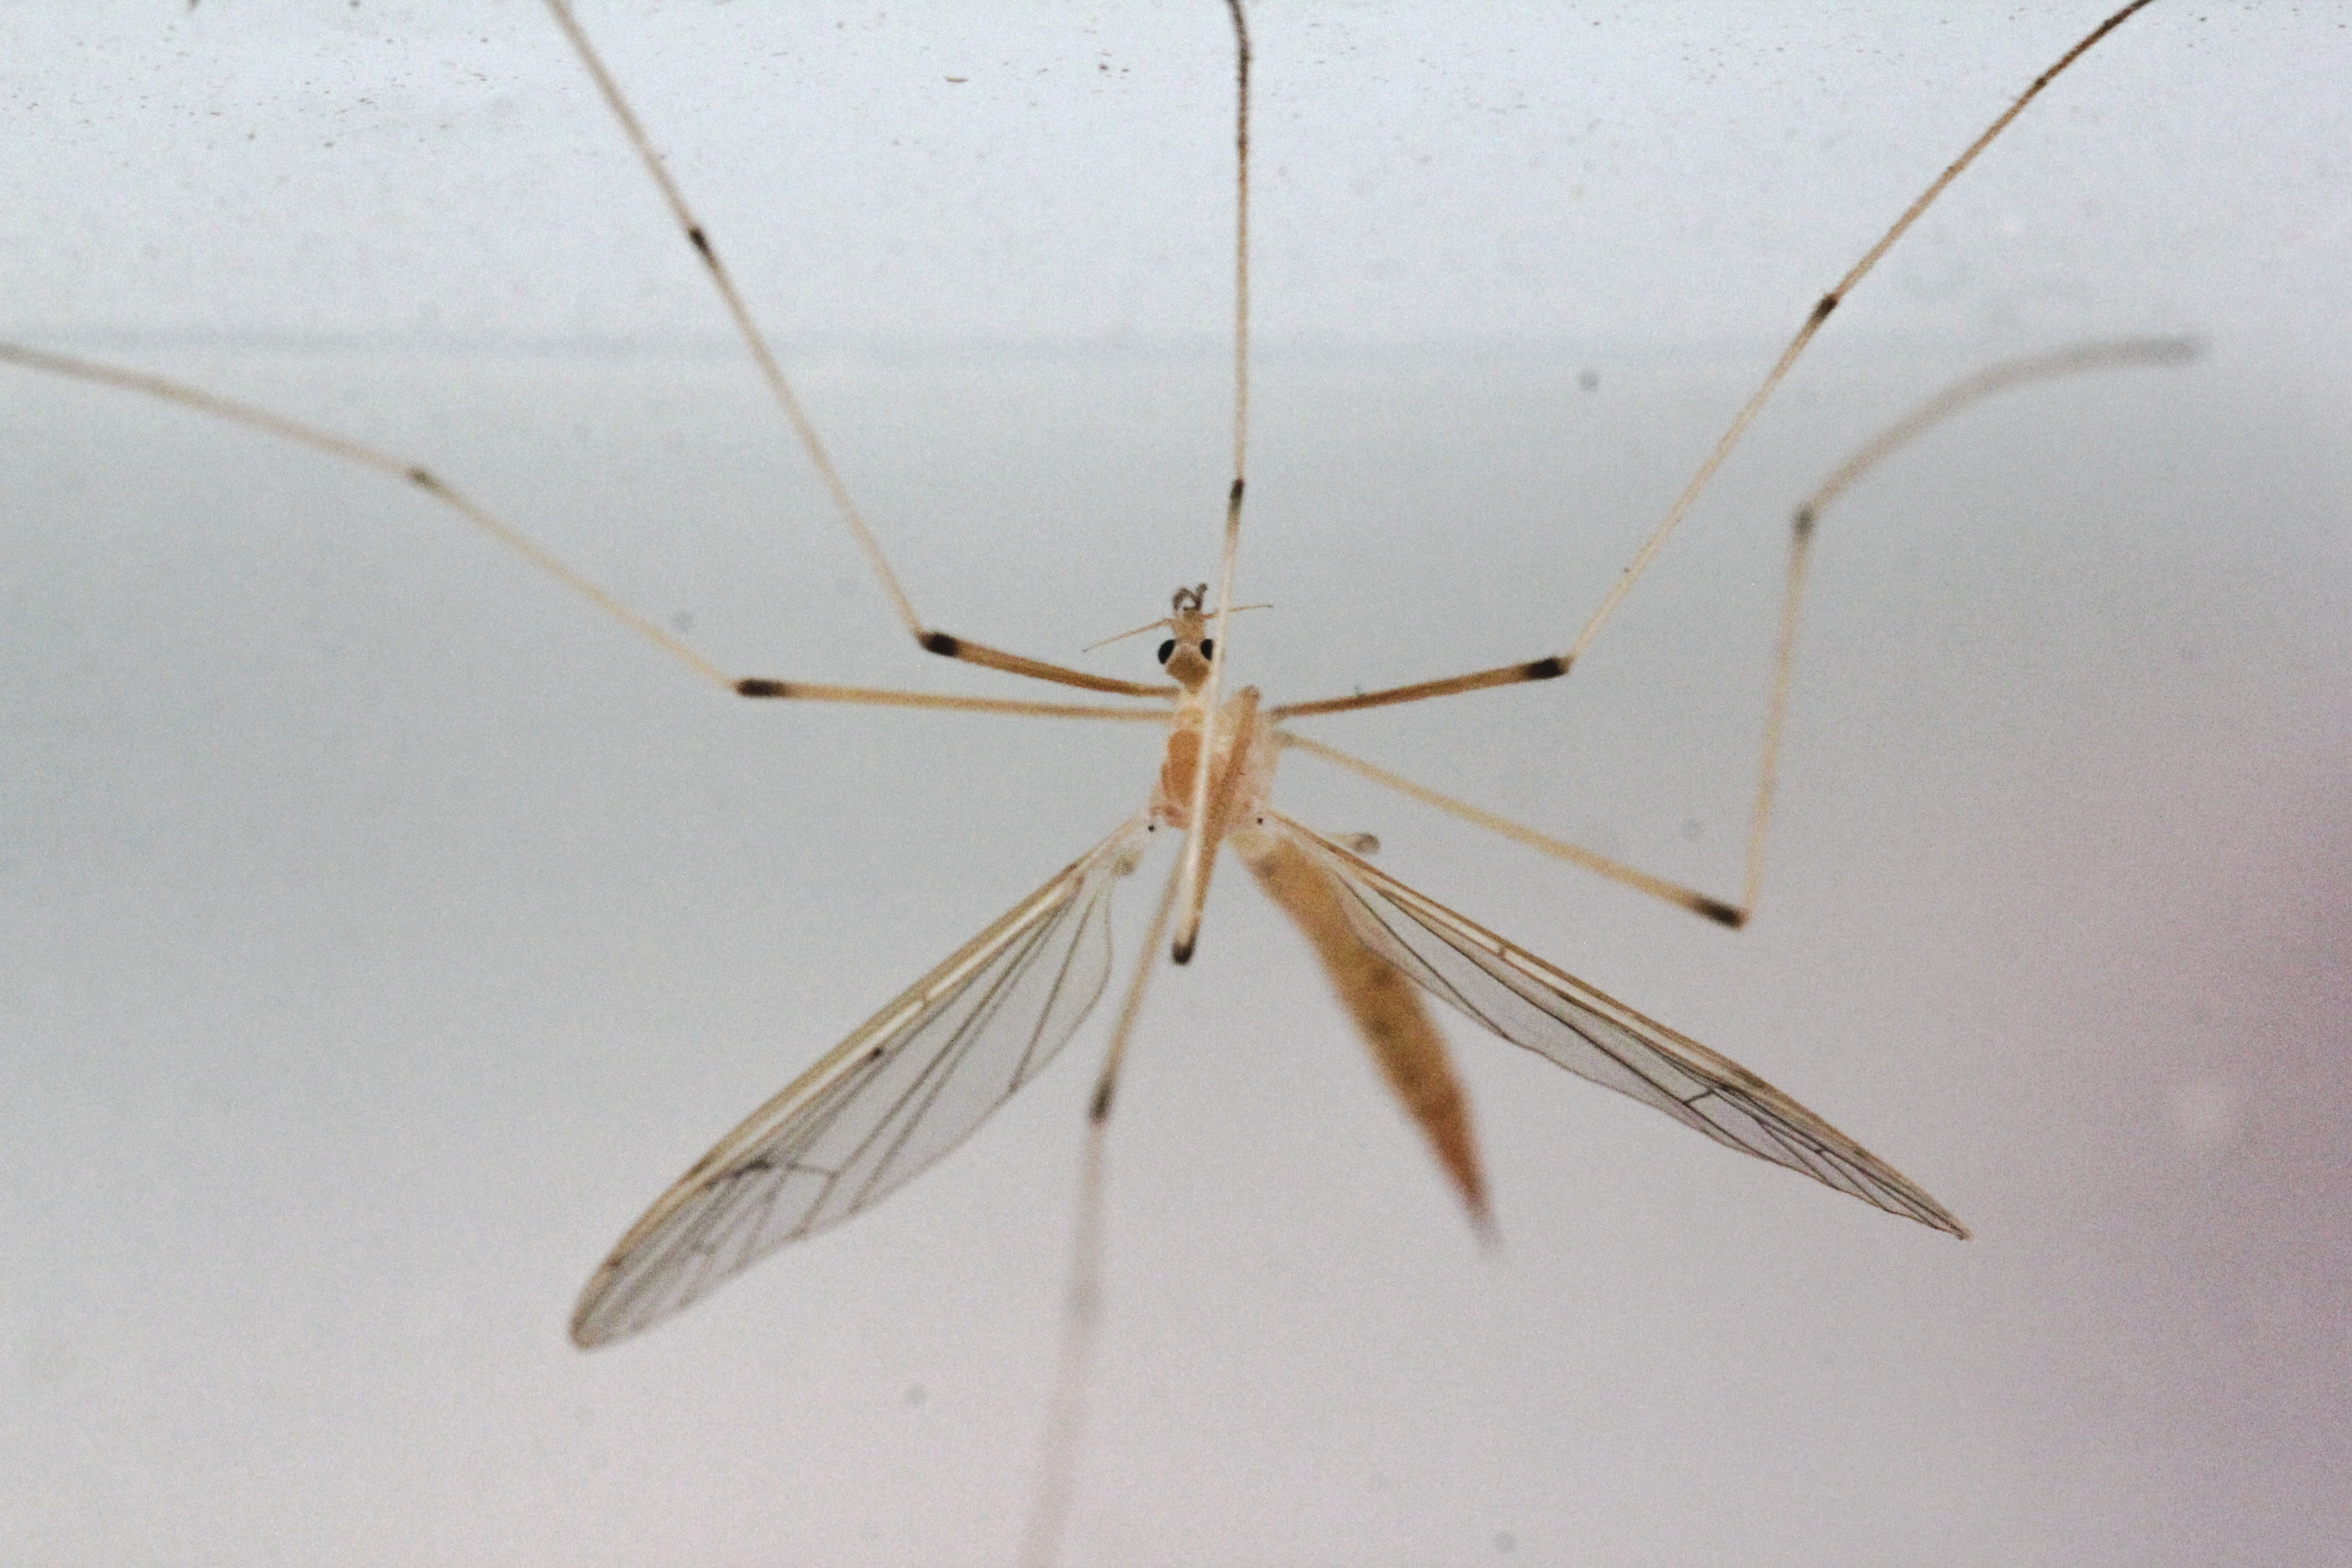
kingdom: Animalia
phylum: Arthropoda
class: Insecta
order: Diptera
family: Pediciidae
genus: Pedicia
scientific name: Pedicia straminea
